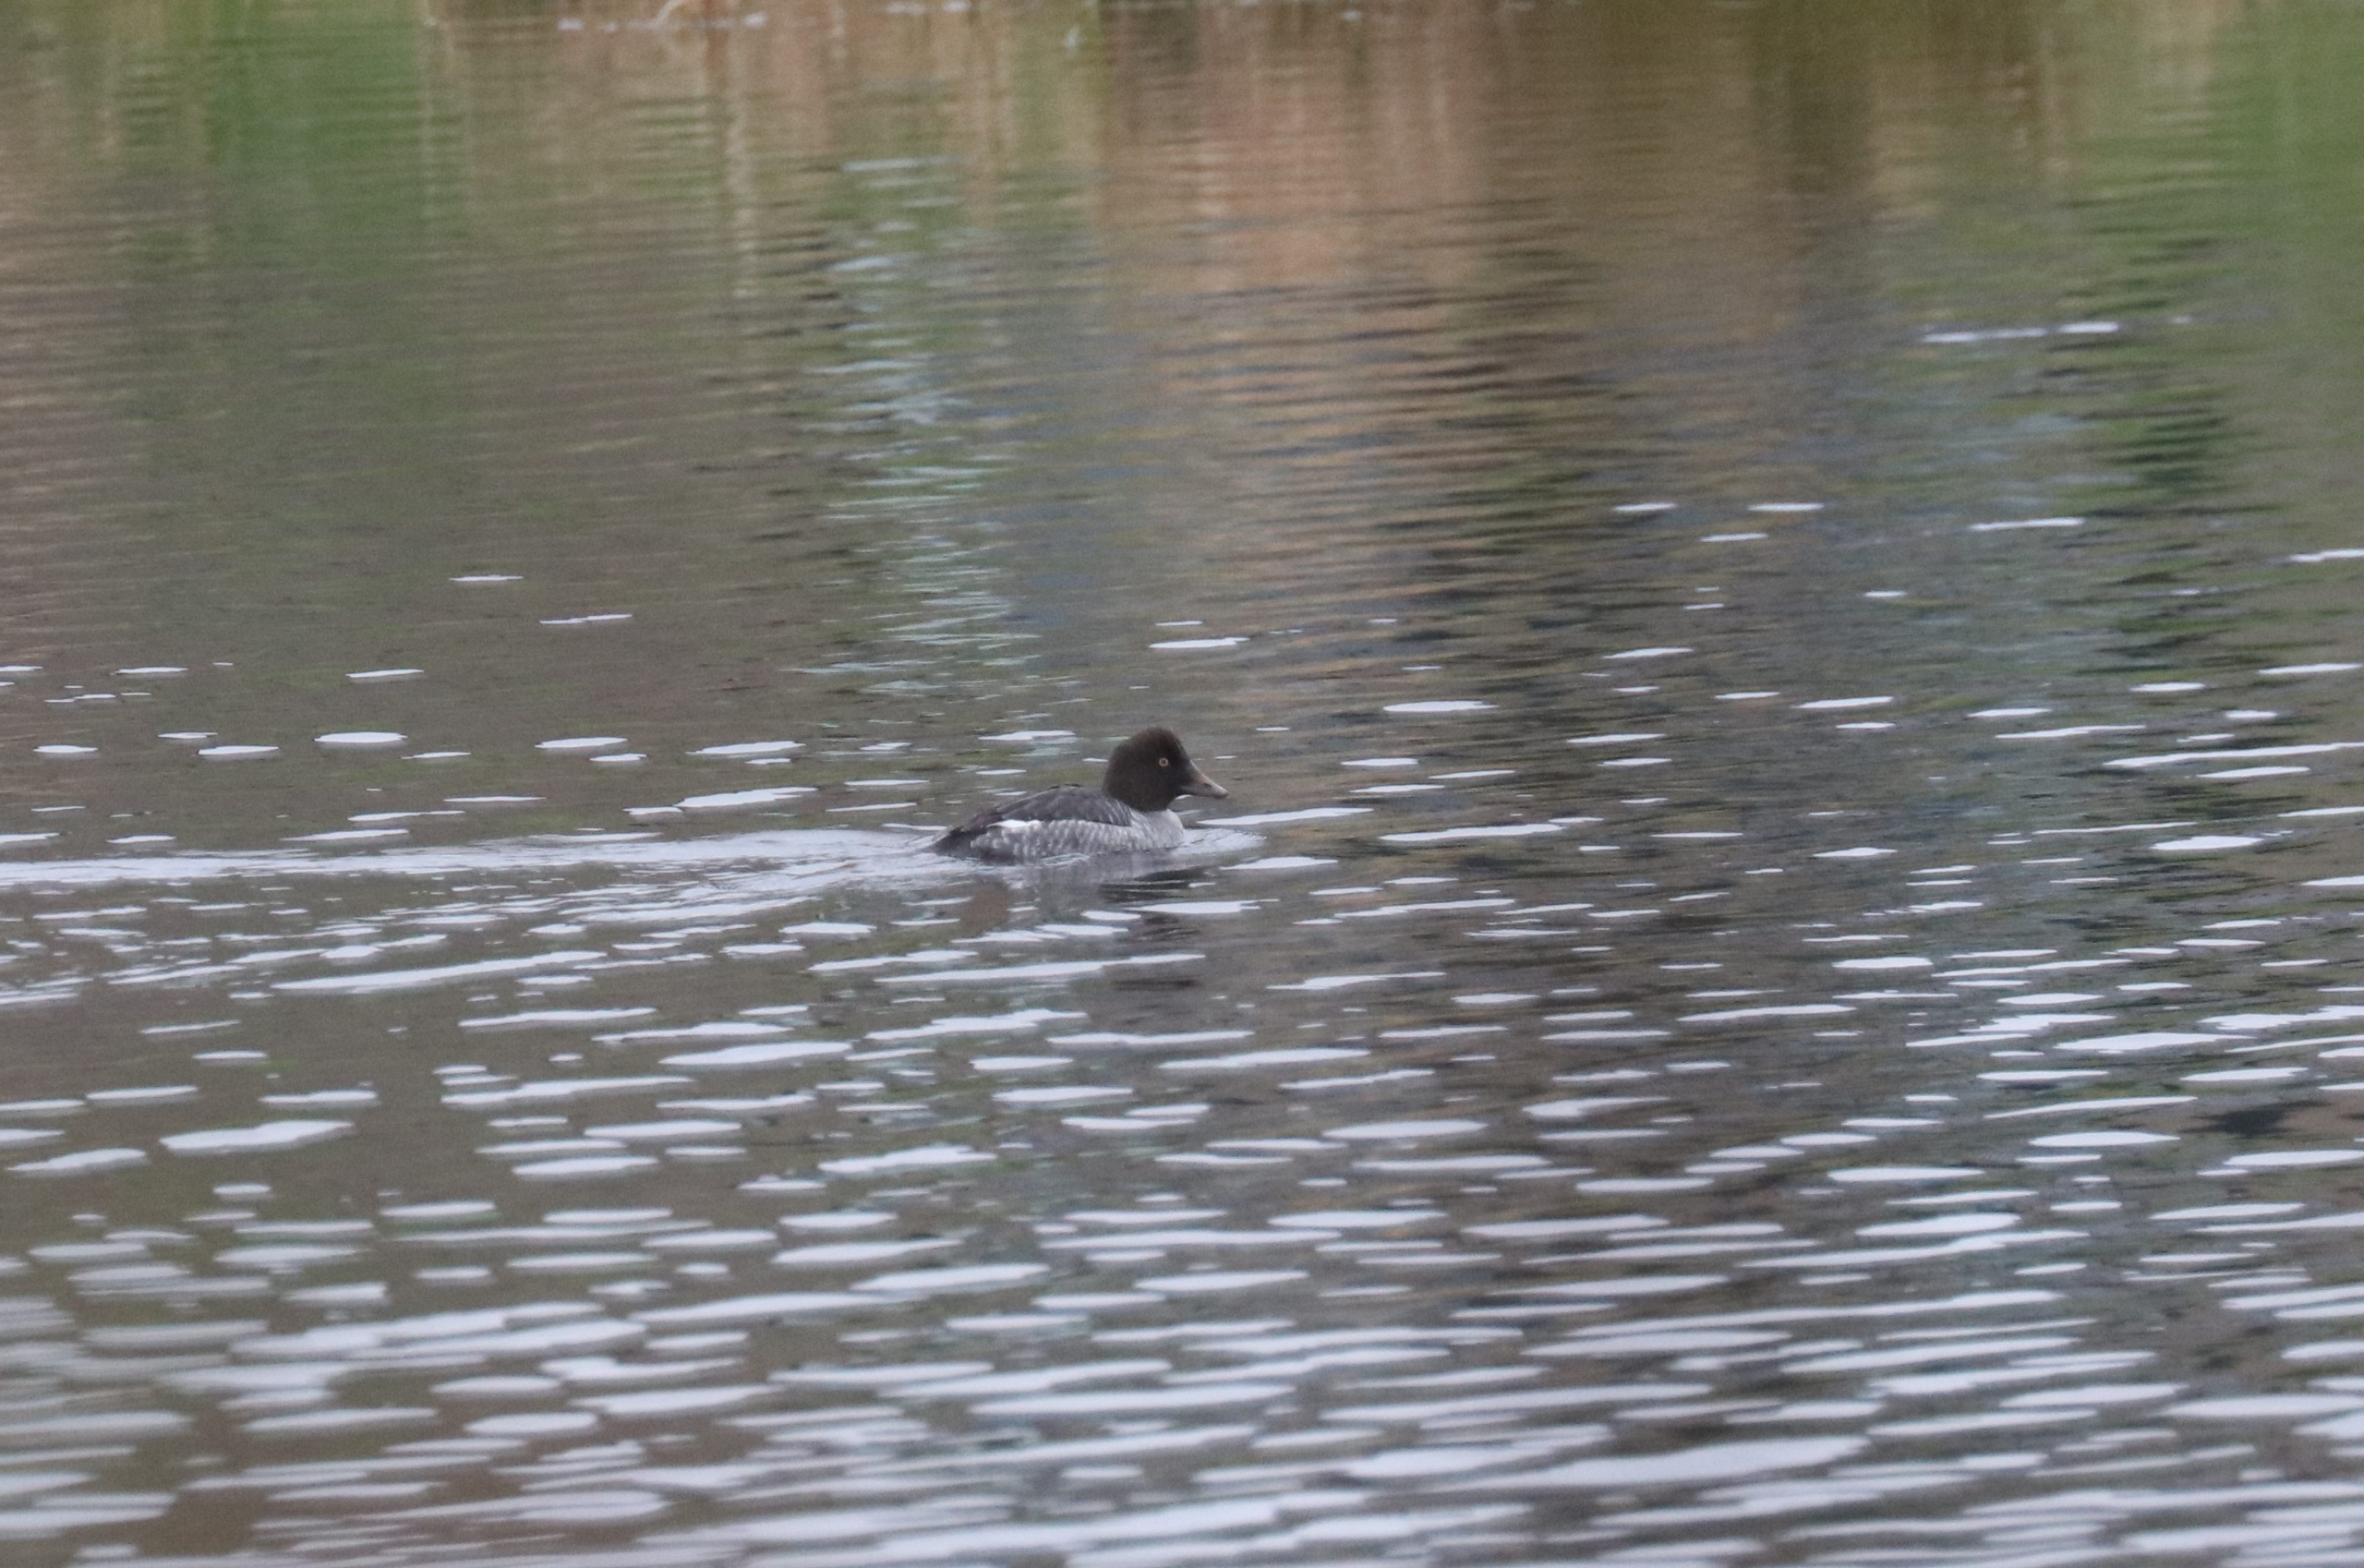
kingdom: Animalia
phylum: Chordata
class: Aves
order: Anseriformes
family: Anatidae
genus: Bucephala
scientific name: Bucephala clangula
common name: Hvinand
